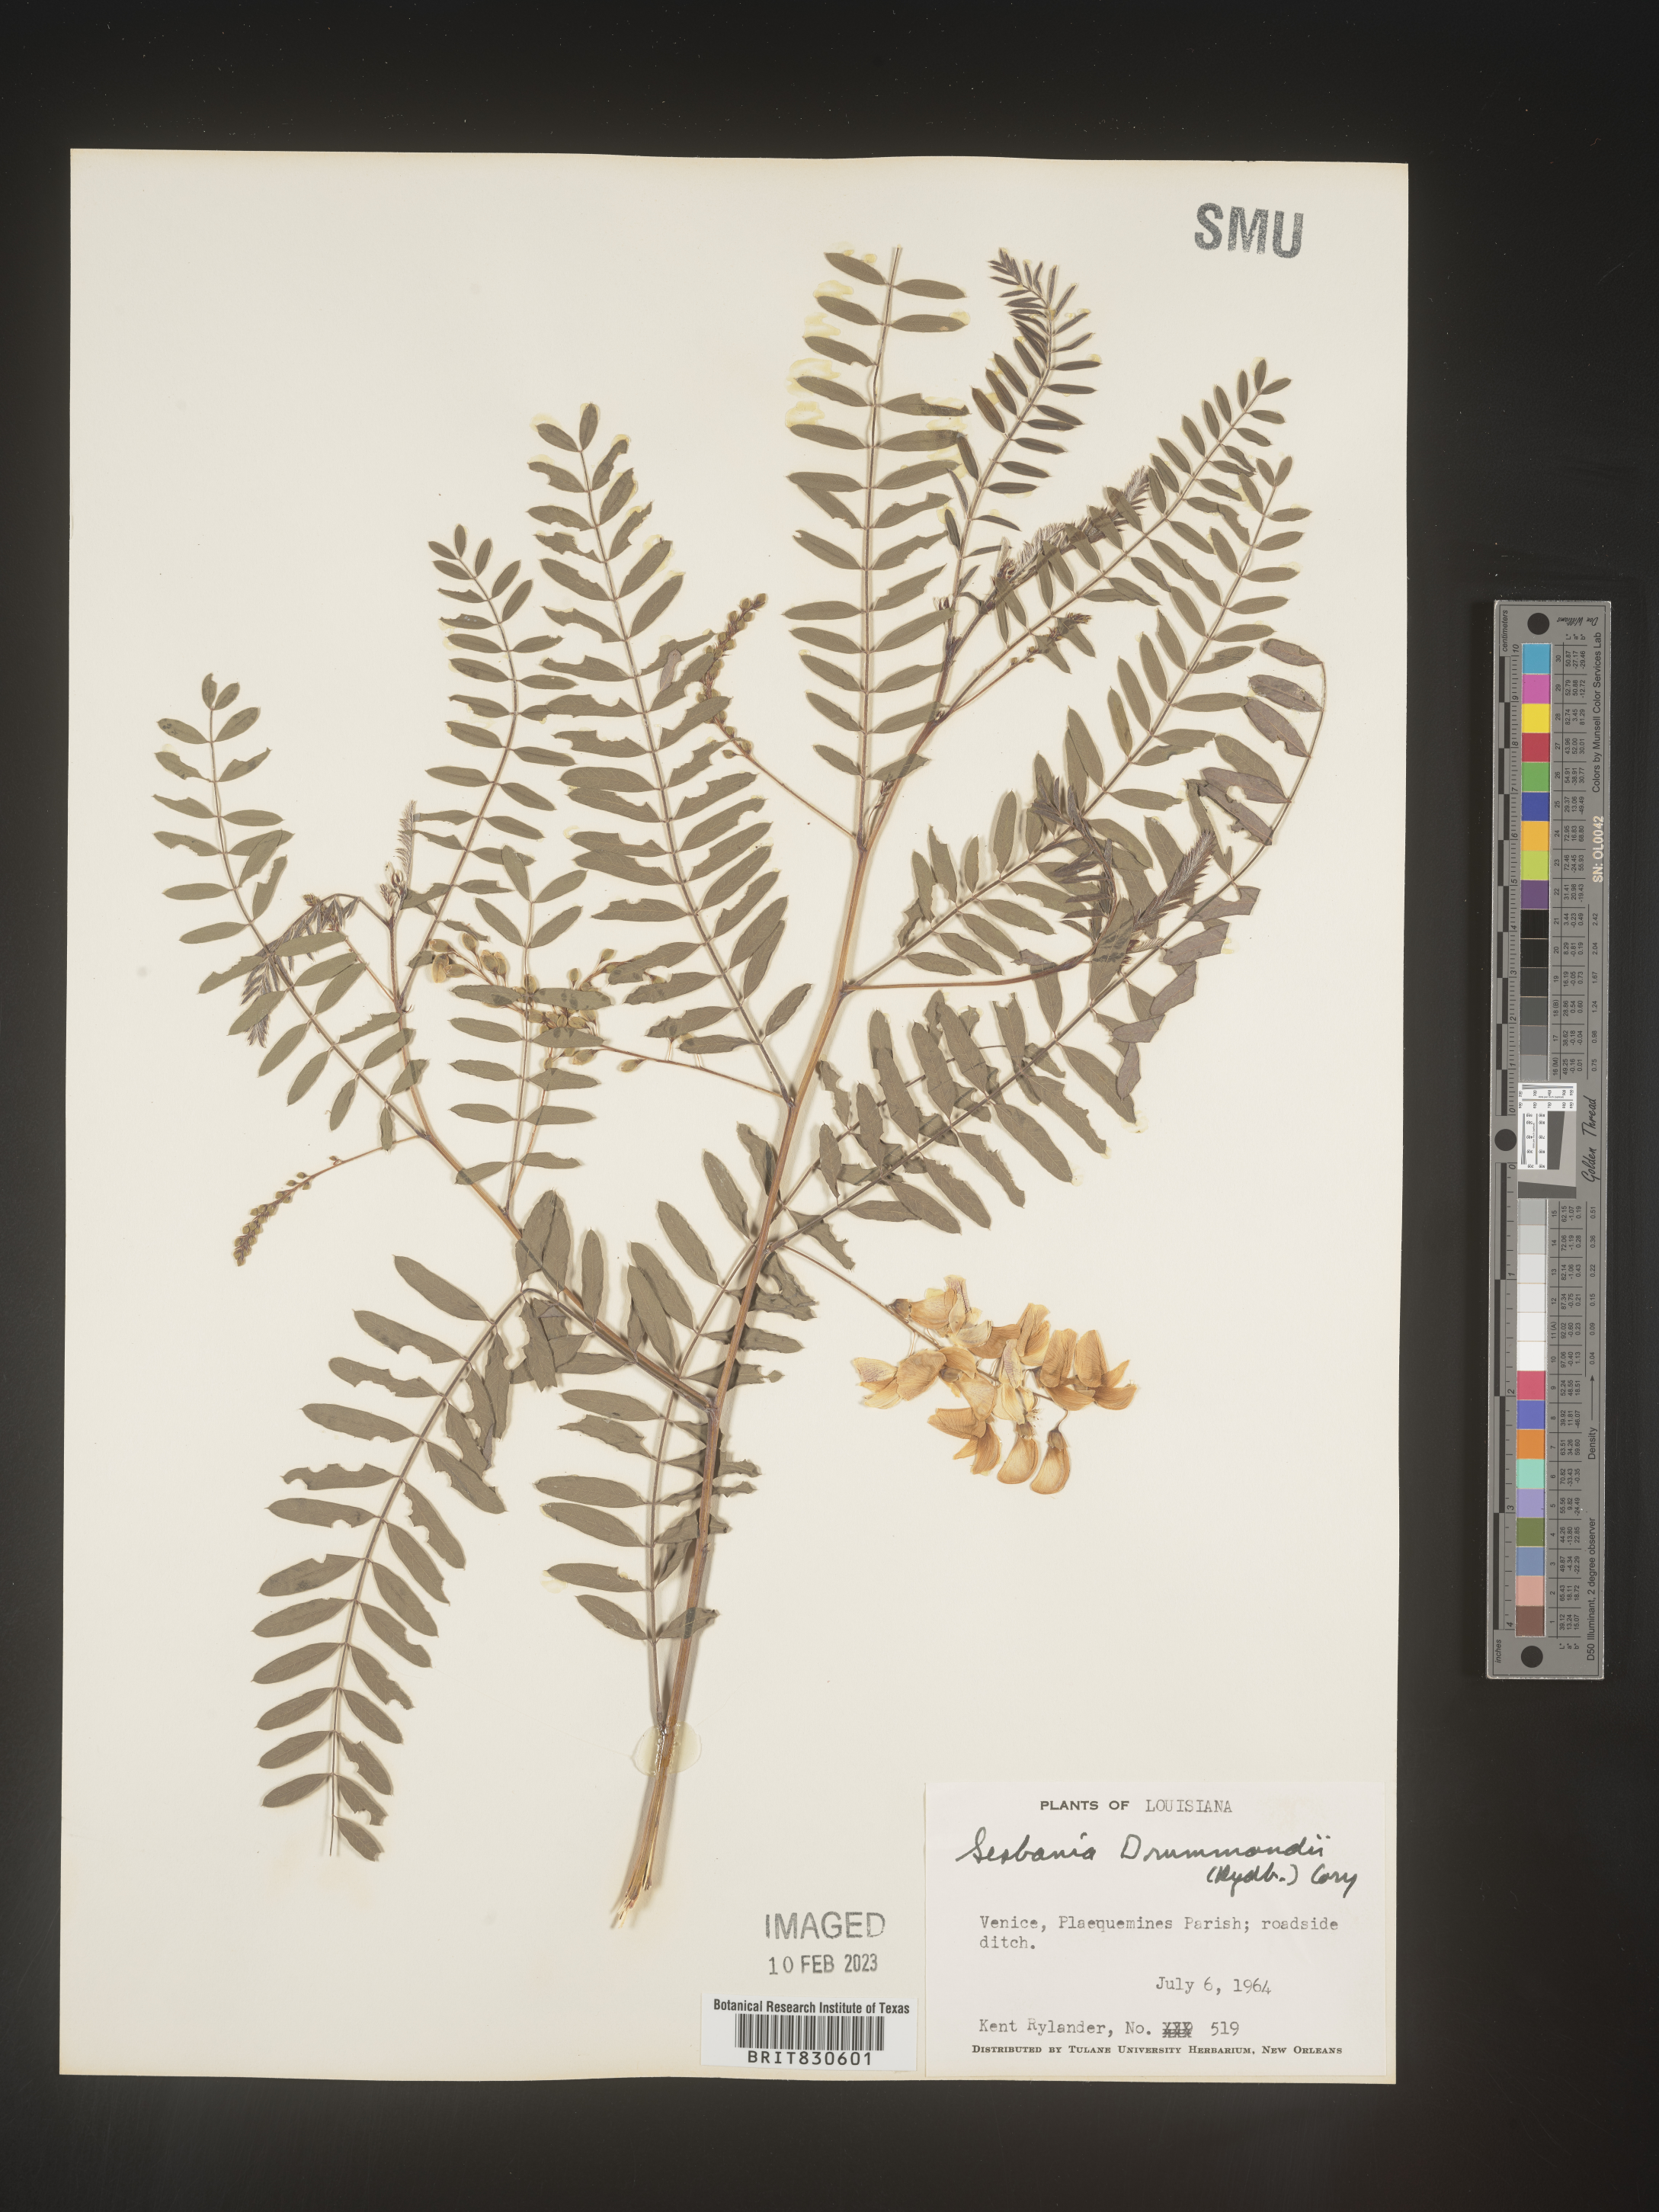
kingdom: Plantae
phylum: Tracheophyta
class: Magnoliopsida
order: Fabales
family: Fabaceae
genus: Sesbania
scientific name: Sesbania drummondii
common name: Poison-bean
